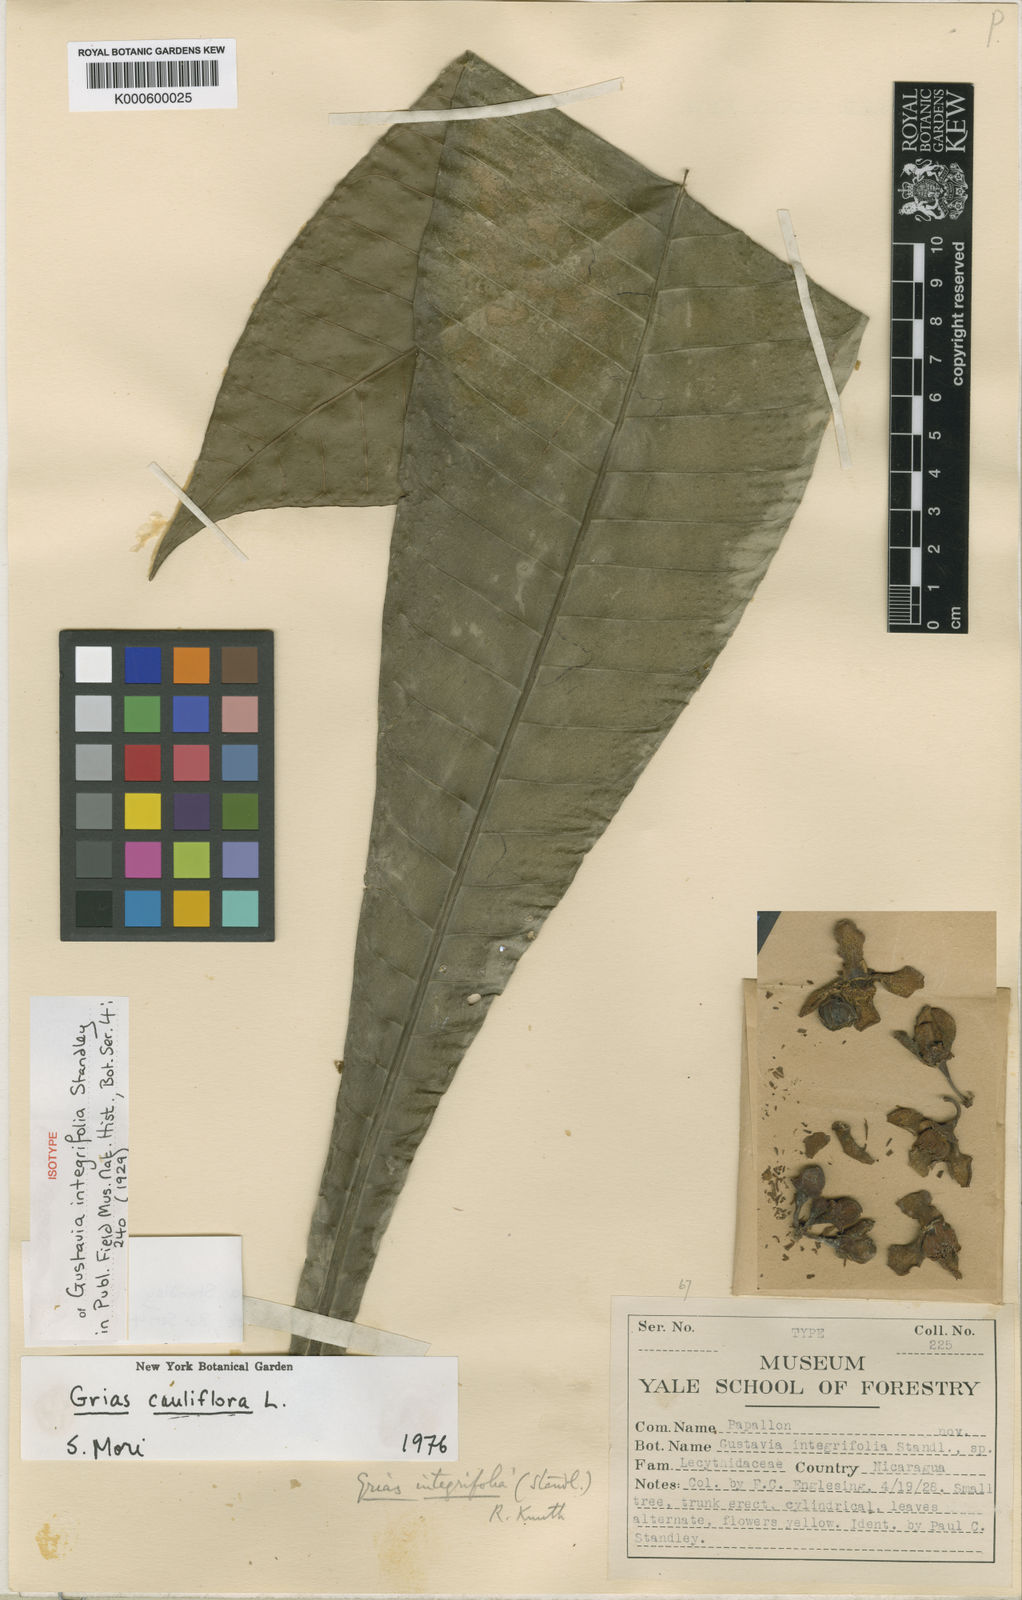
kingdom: Plantae
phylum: Tracheophyta
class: Magnoliopsida
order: Ericales
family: Lecythidaceae
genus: Grias
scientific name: Grias cauliflora
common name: Anchovy-pear
